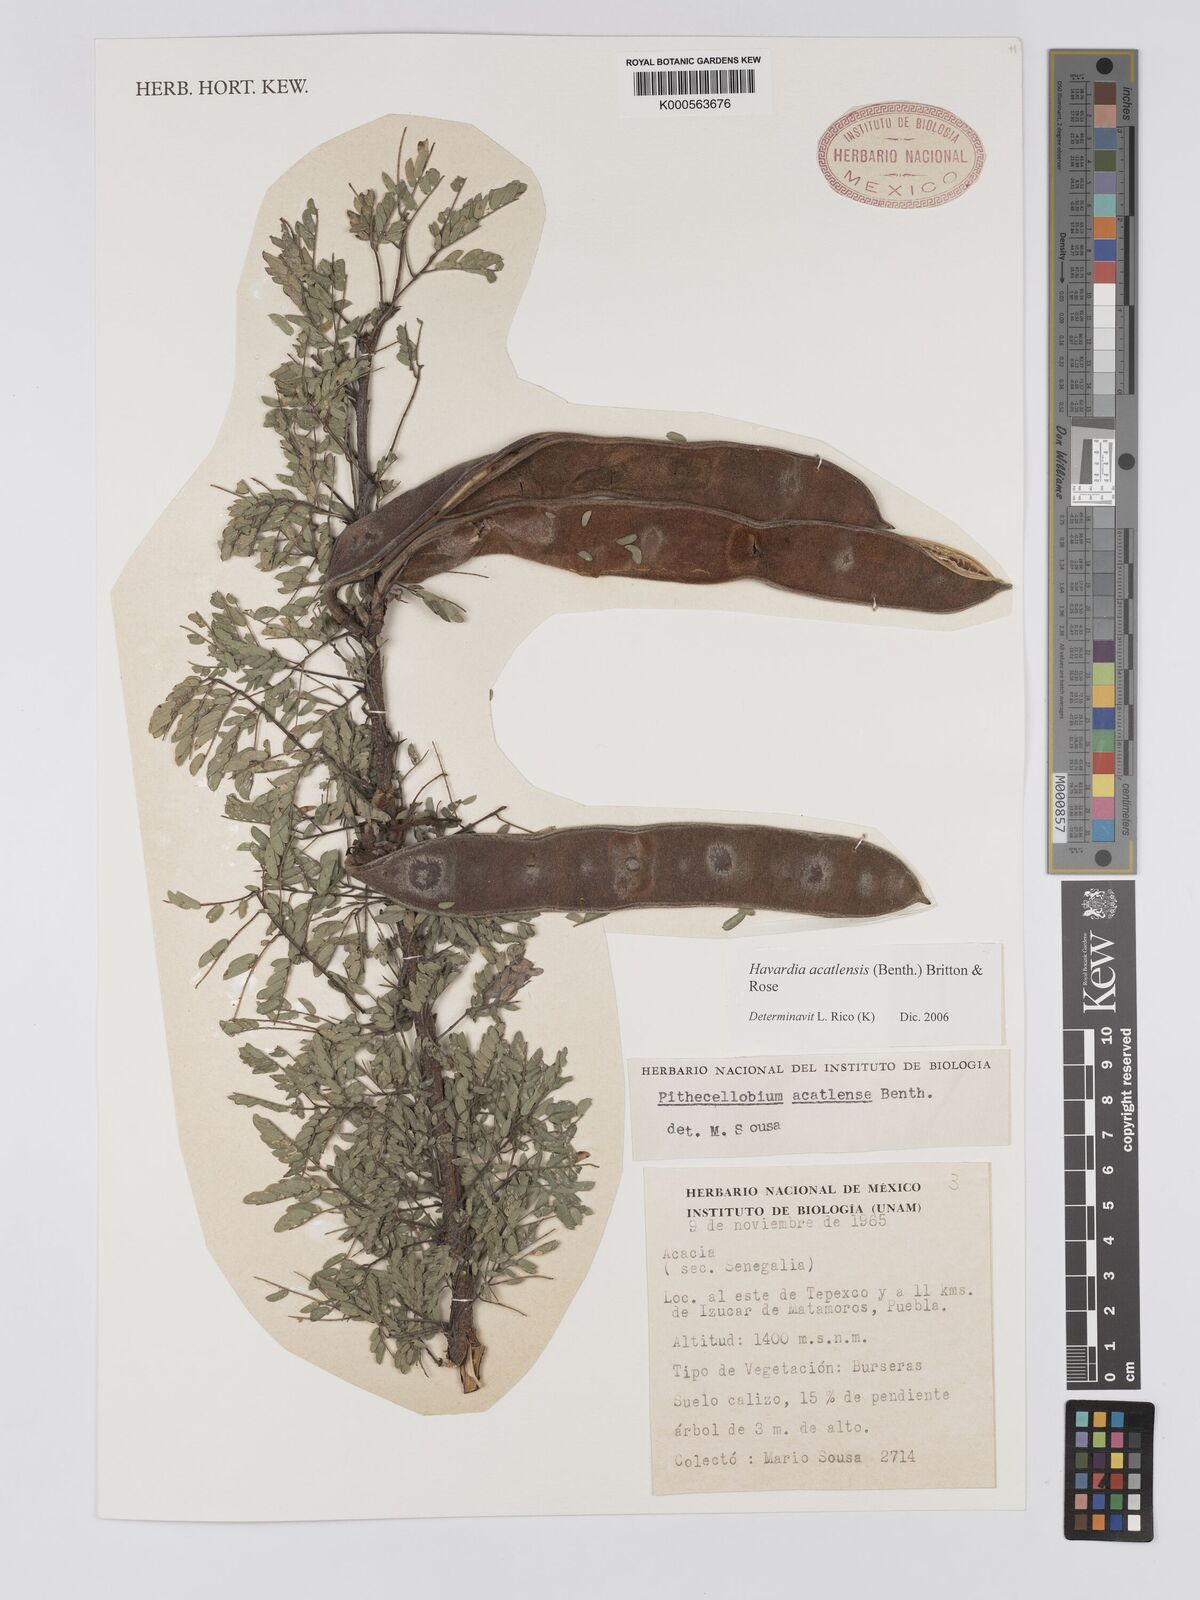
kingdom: Plantae
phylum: Tracheophyta
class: Magnoliopsida
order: Fabales
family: Fabaceae
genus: Havardia
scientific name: Havardia acatlensis
